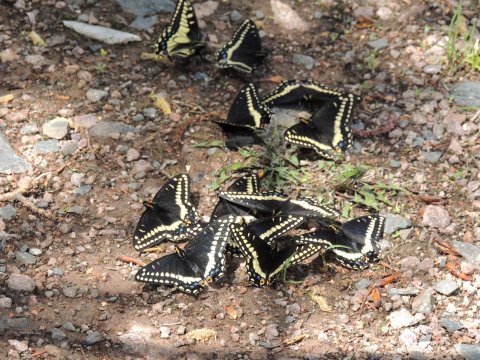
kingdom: Animalia
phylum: Arthropoda
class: Insecta
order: Lepidoptera
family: Papilionidae
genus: Papilio
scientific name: Papilio indra
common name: Indra Swallowtail
